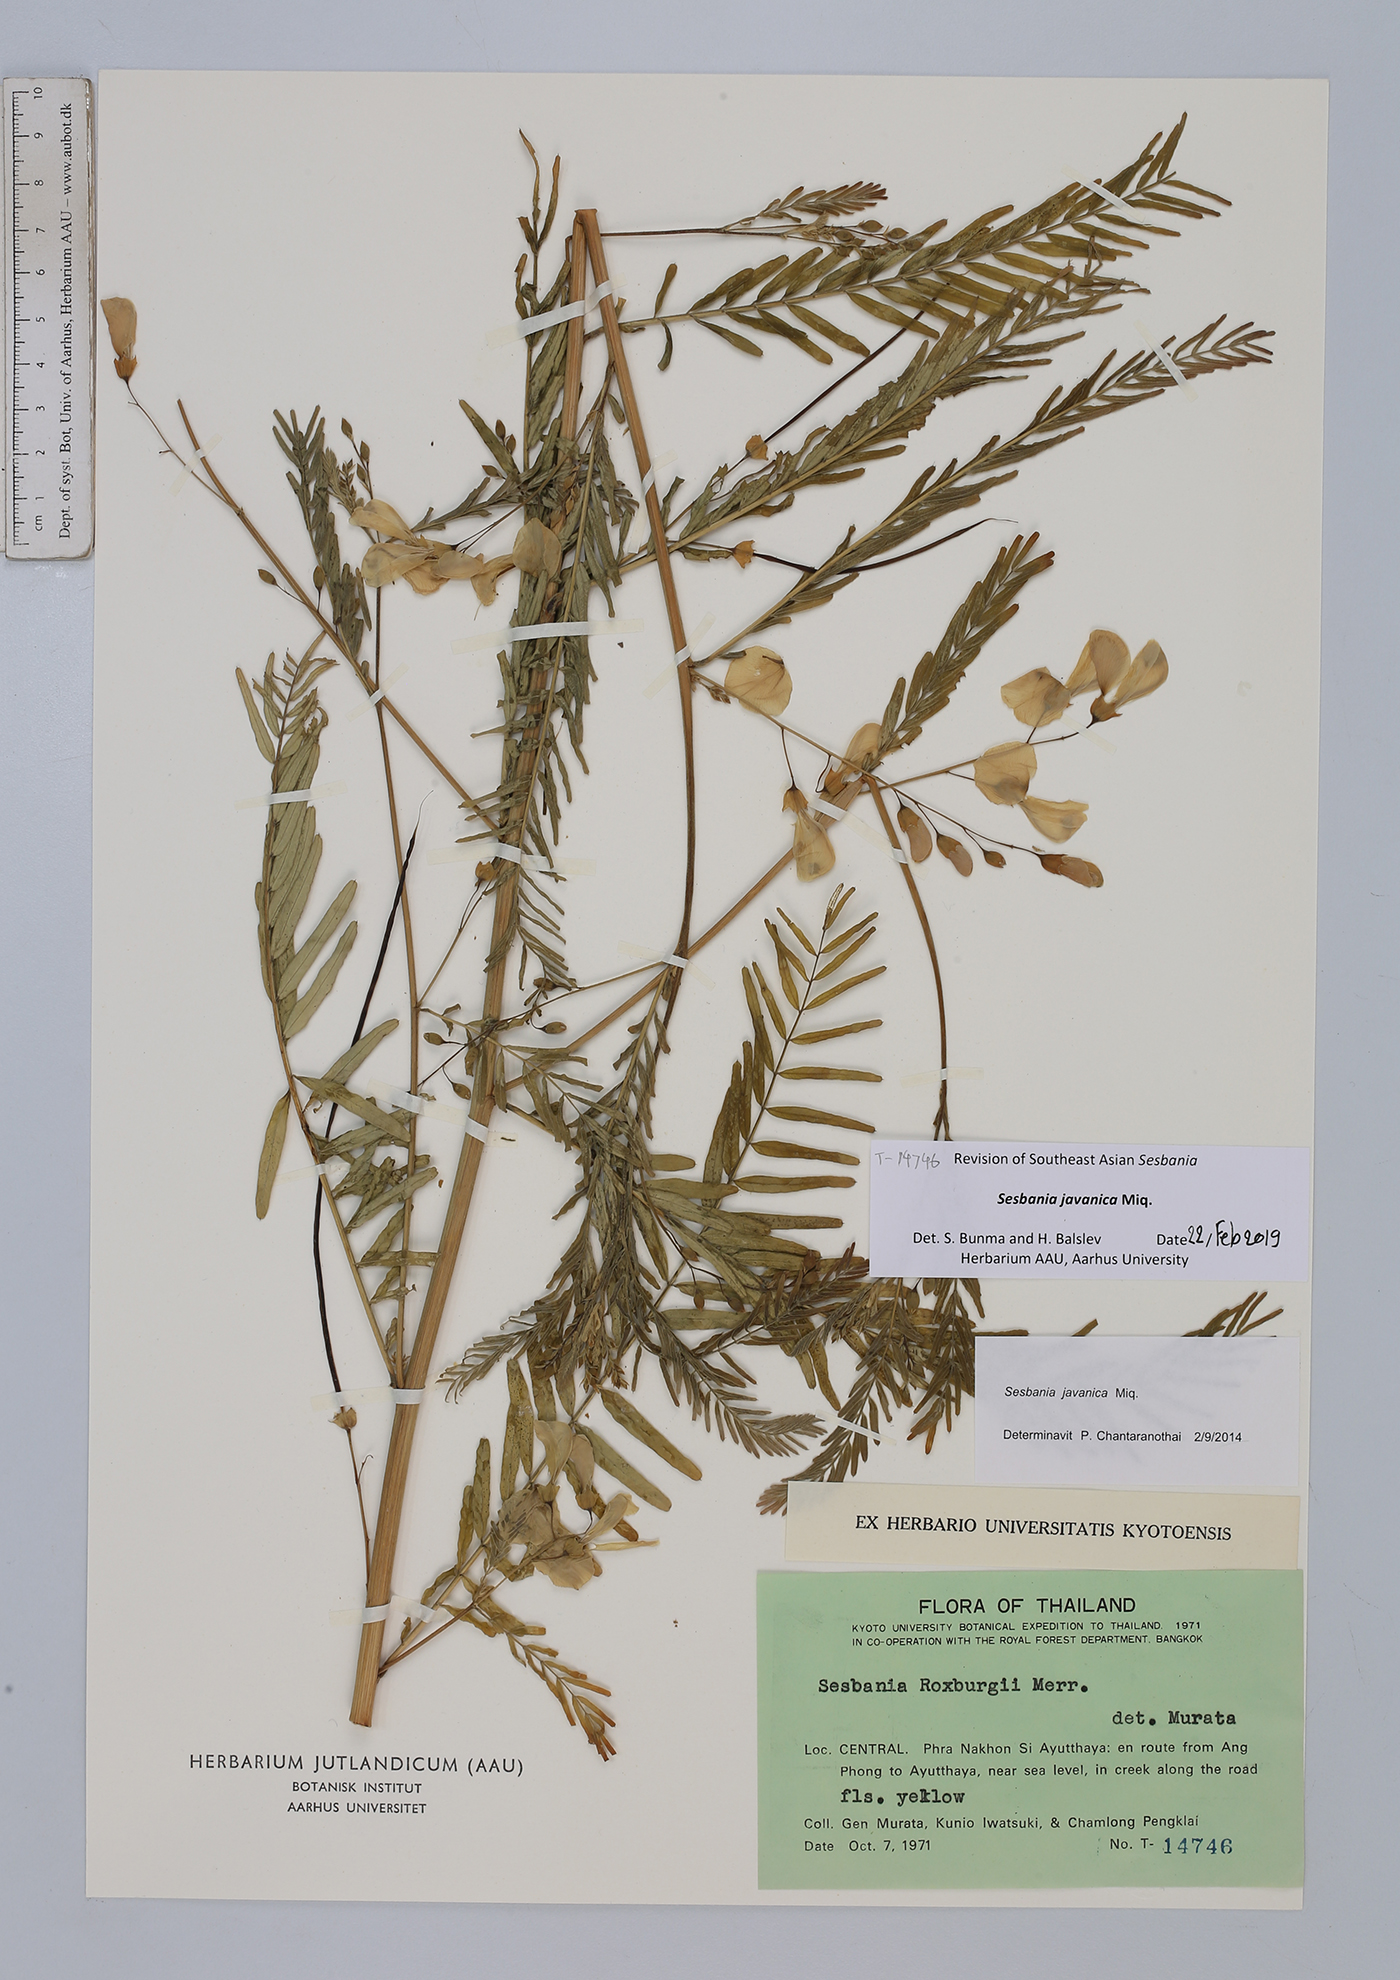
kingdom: Plantae
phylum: Tracheophyta
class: Magnoliopsida
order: Fabales
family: Fabaceae
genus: Sesbania
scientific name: Sesbania javanica
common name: Sesbania-pea
